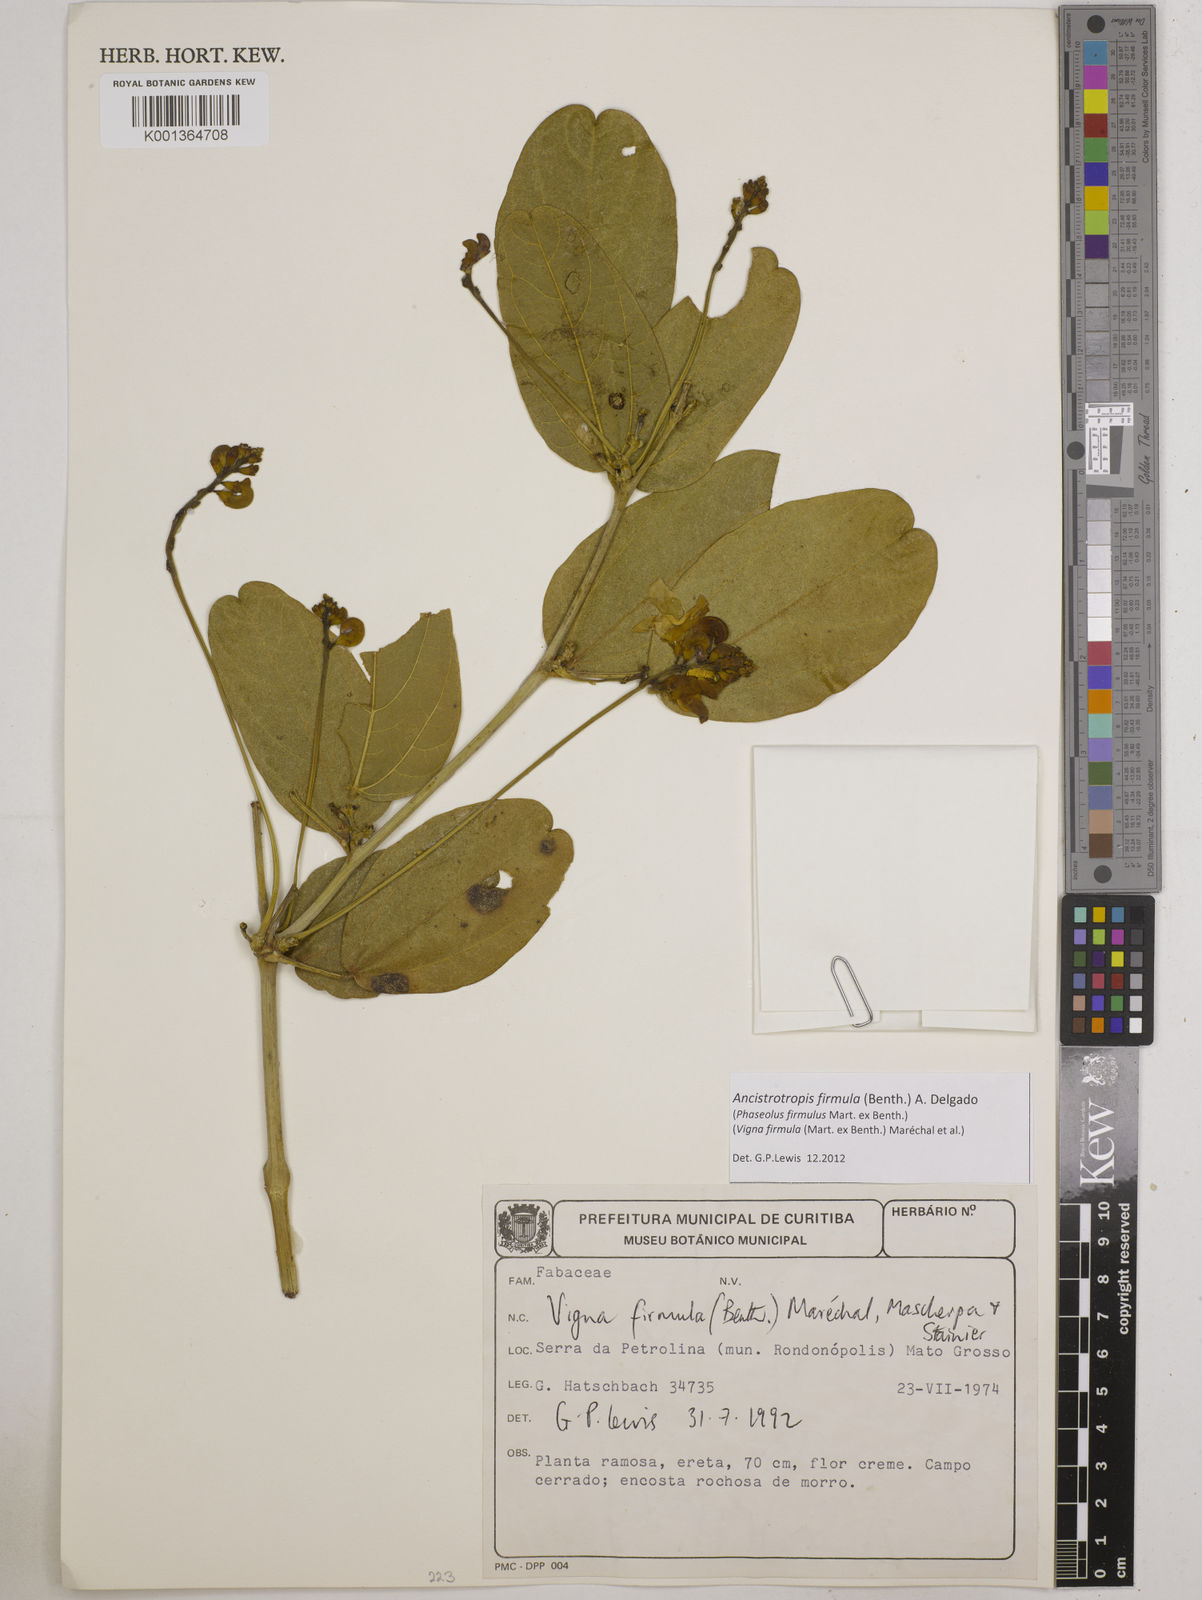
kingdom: Plantae
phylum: Tracheophyta
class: Magnoliopsida
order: Fabales
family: Fabaceae
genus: Ancistrotropis
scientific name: Ancistrotropis firmula
